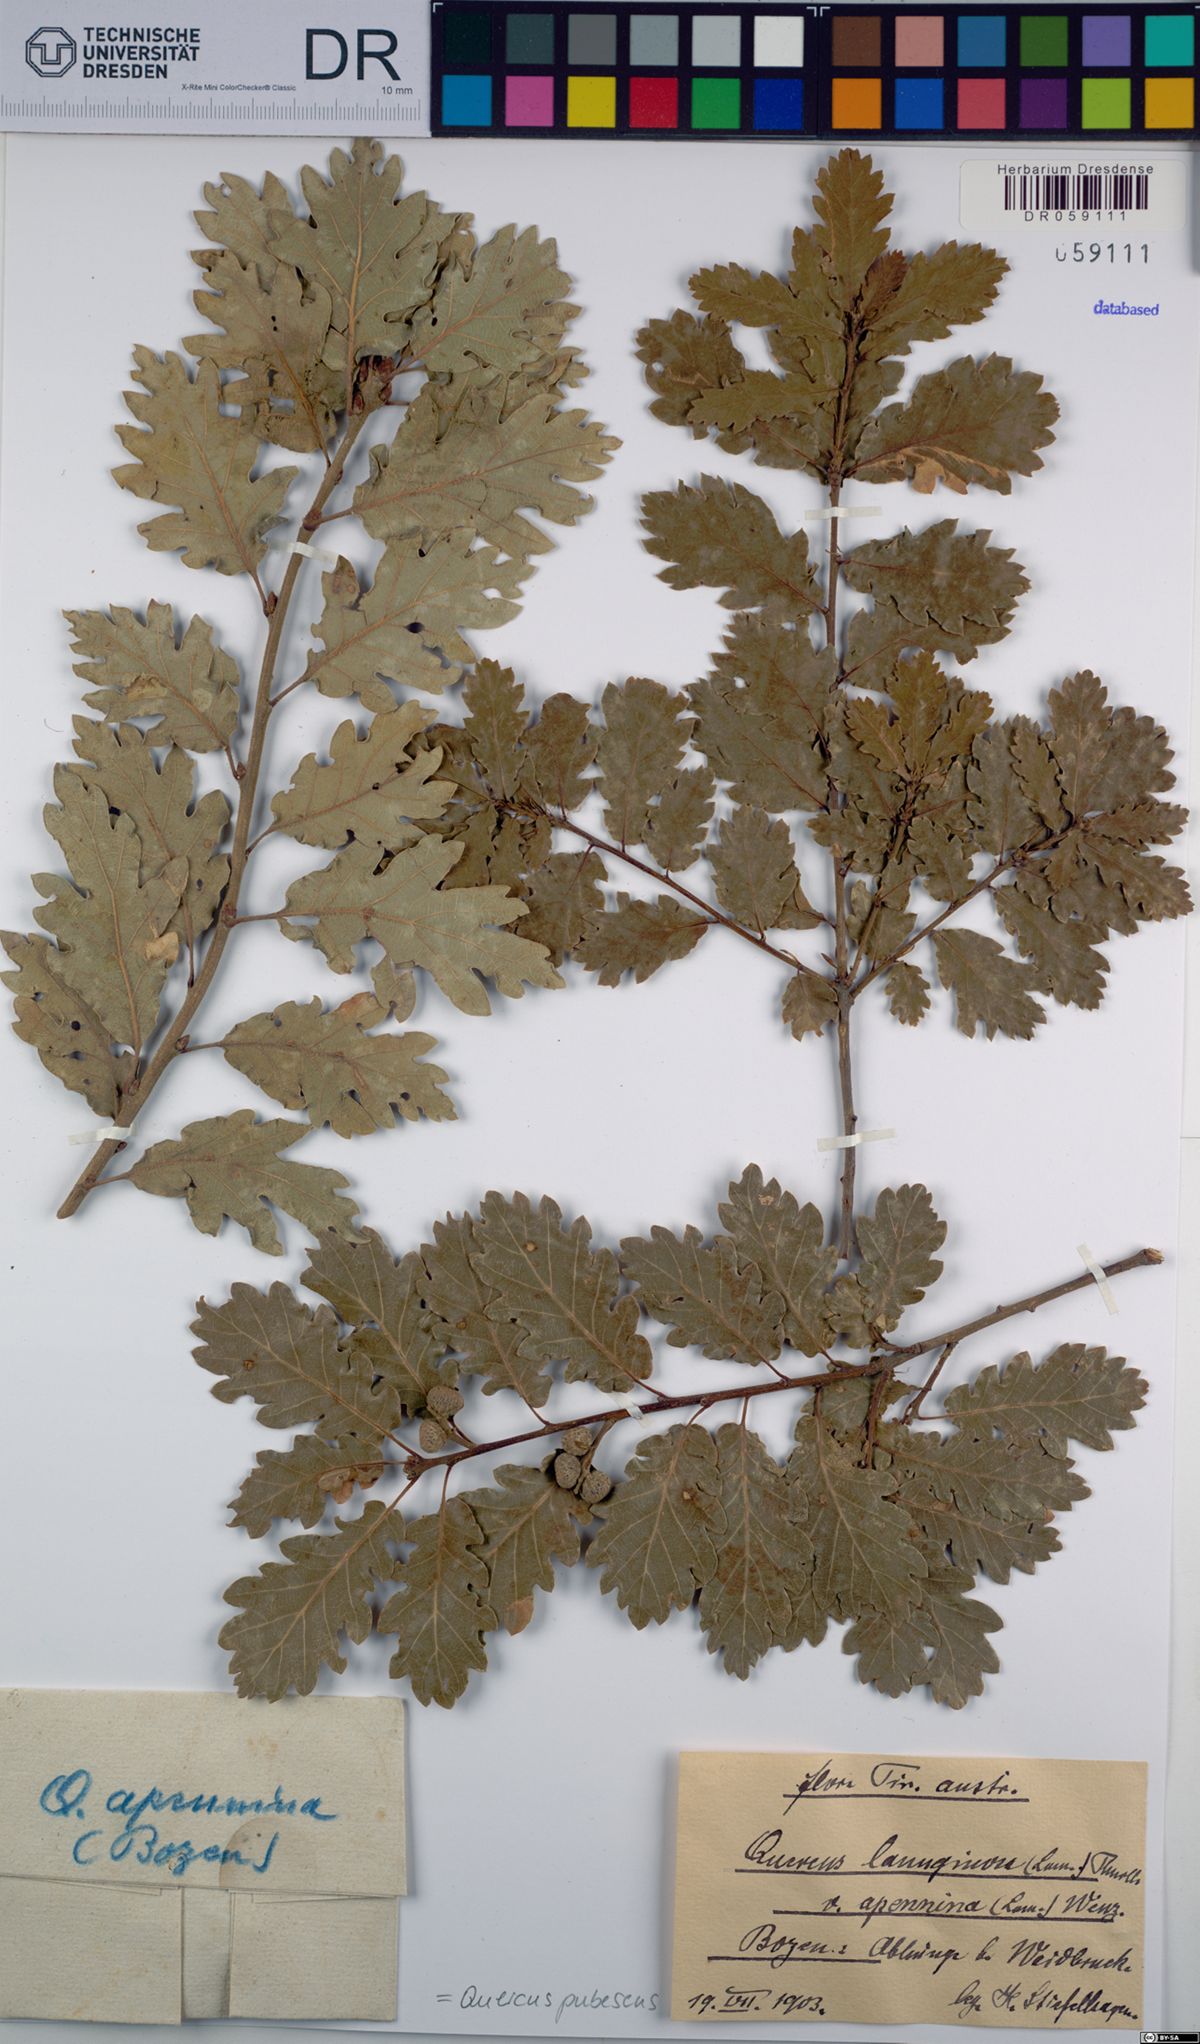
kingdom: Plantae
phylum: Tracheophyta
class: Magnoliopsida
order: Fagales
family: Fagaceae
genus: Quercus
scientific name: Quercus pubescens
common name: Downy oak
